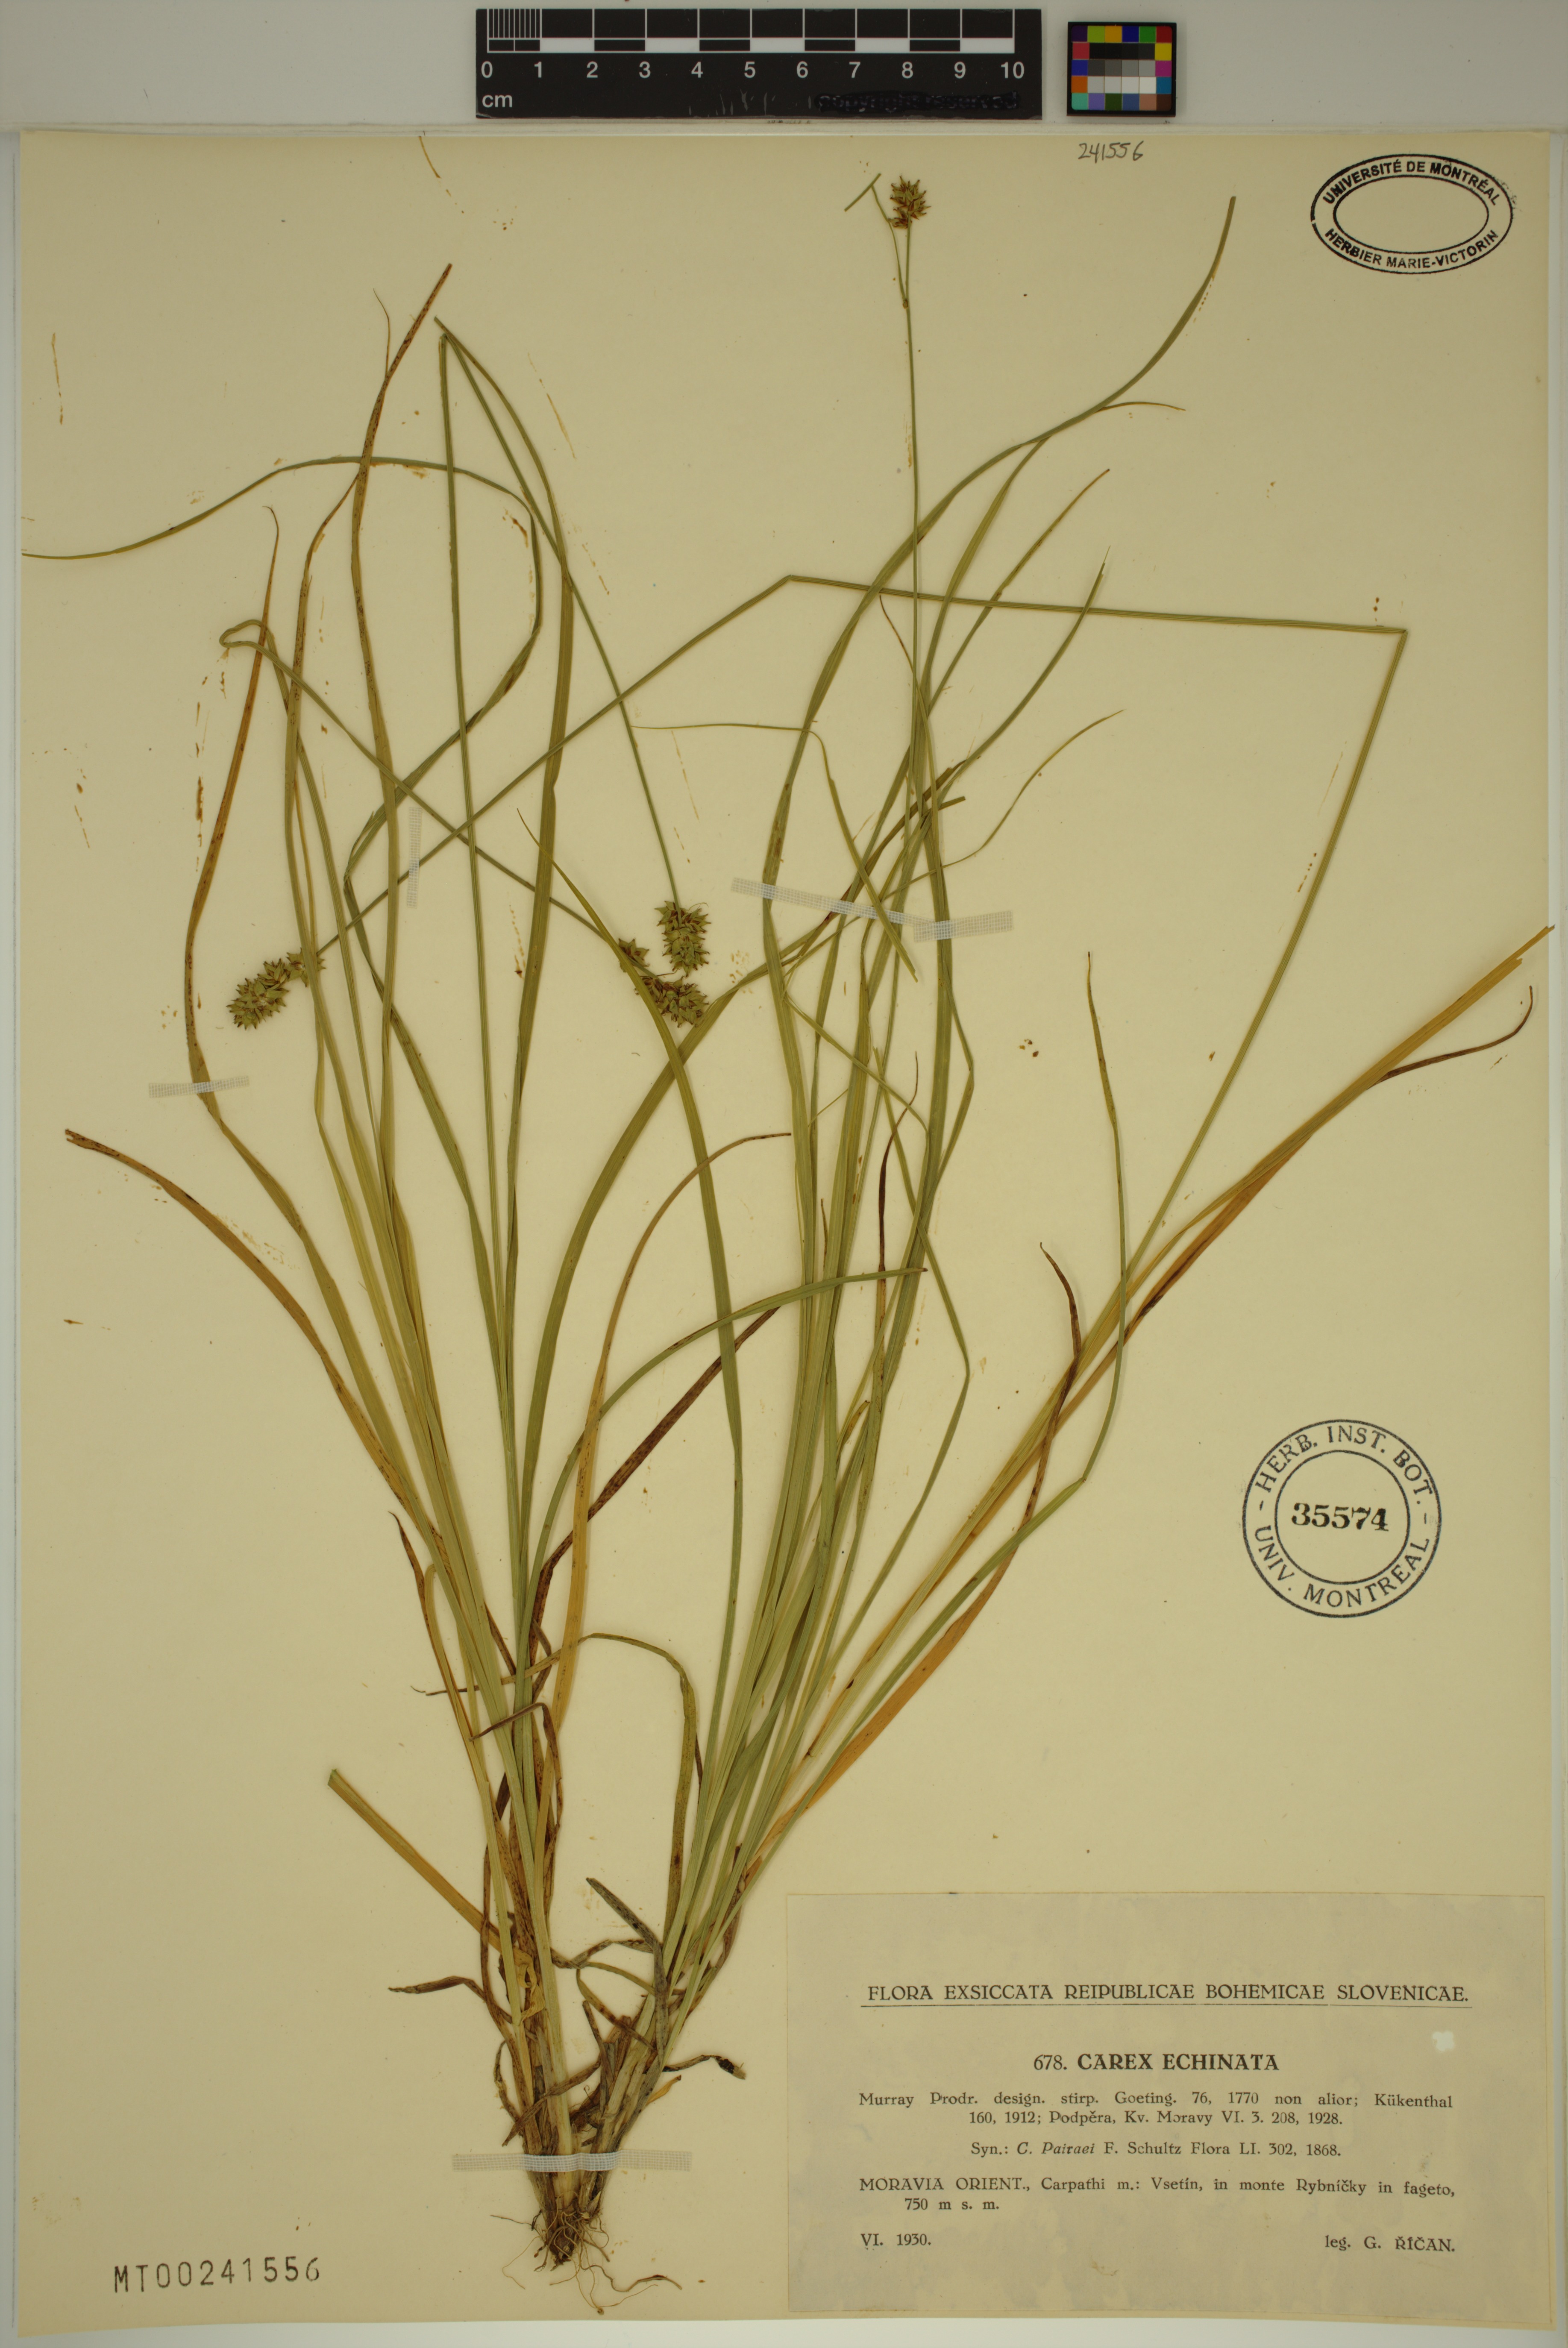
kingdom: Plantae
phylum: Tracheophyta
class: Liliopsida
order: Poales
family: Cyperaceae
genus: Carex
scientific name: Carex echinata
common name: Star sedge
